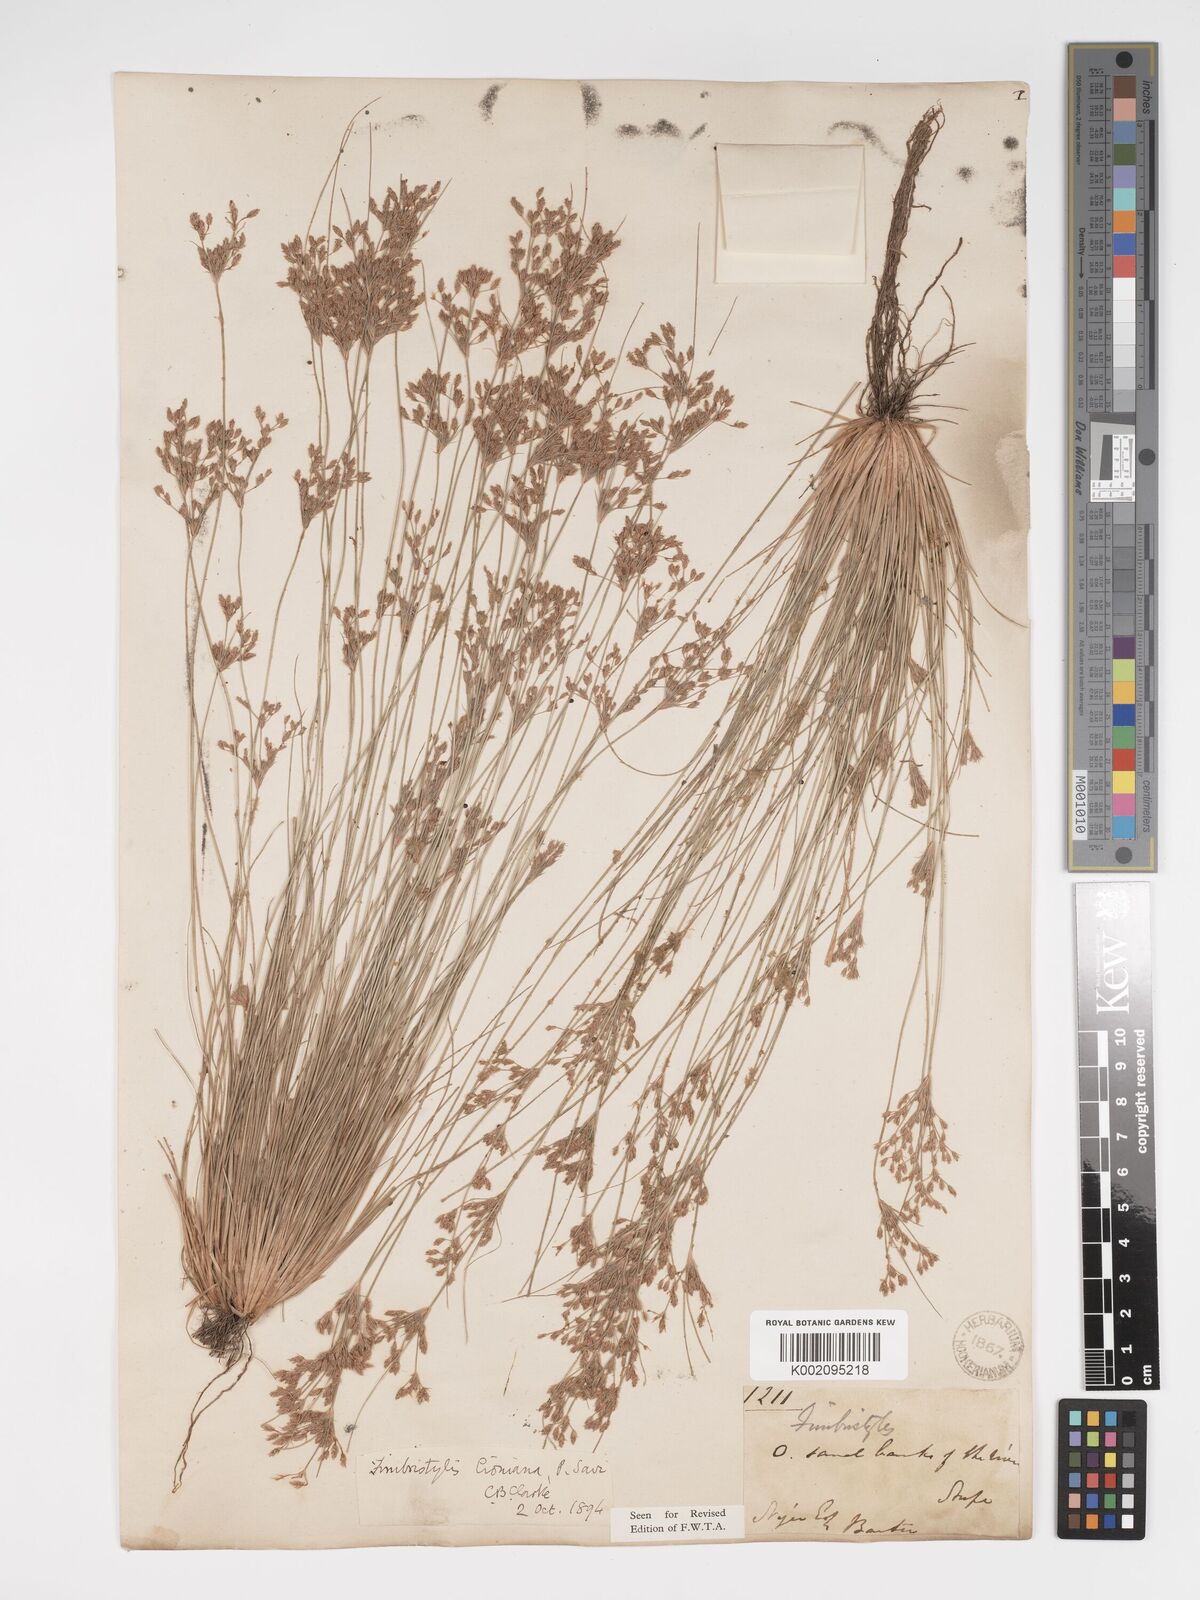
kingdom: Plantae
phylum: Tracheophyta
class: Liliopsida
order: Poales
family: Cyperaceae
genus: Bulbostylis
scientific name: Bulbostylis cioniana
